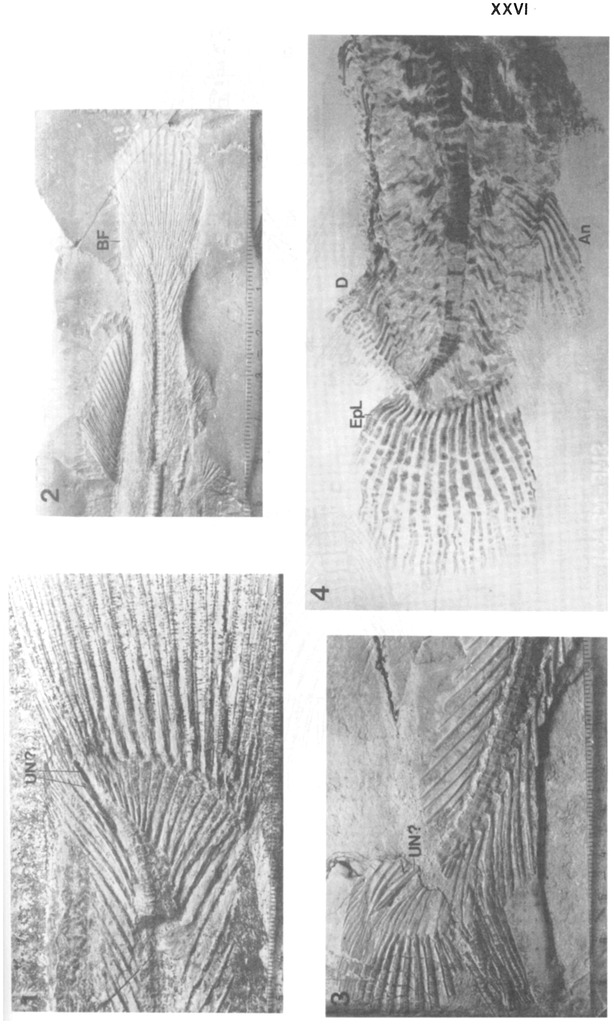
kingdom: Animalia
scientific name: Animalia
